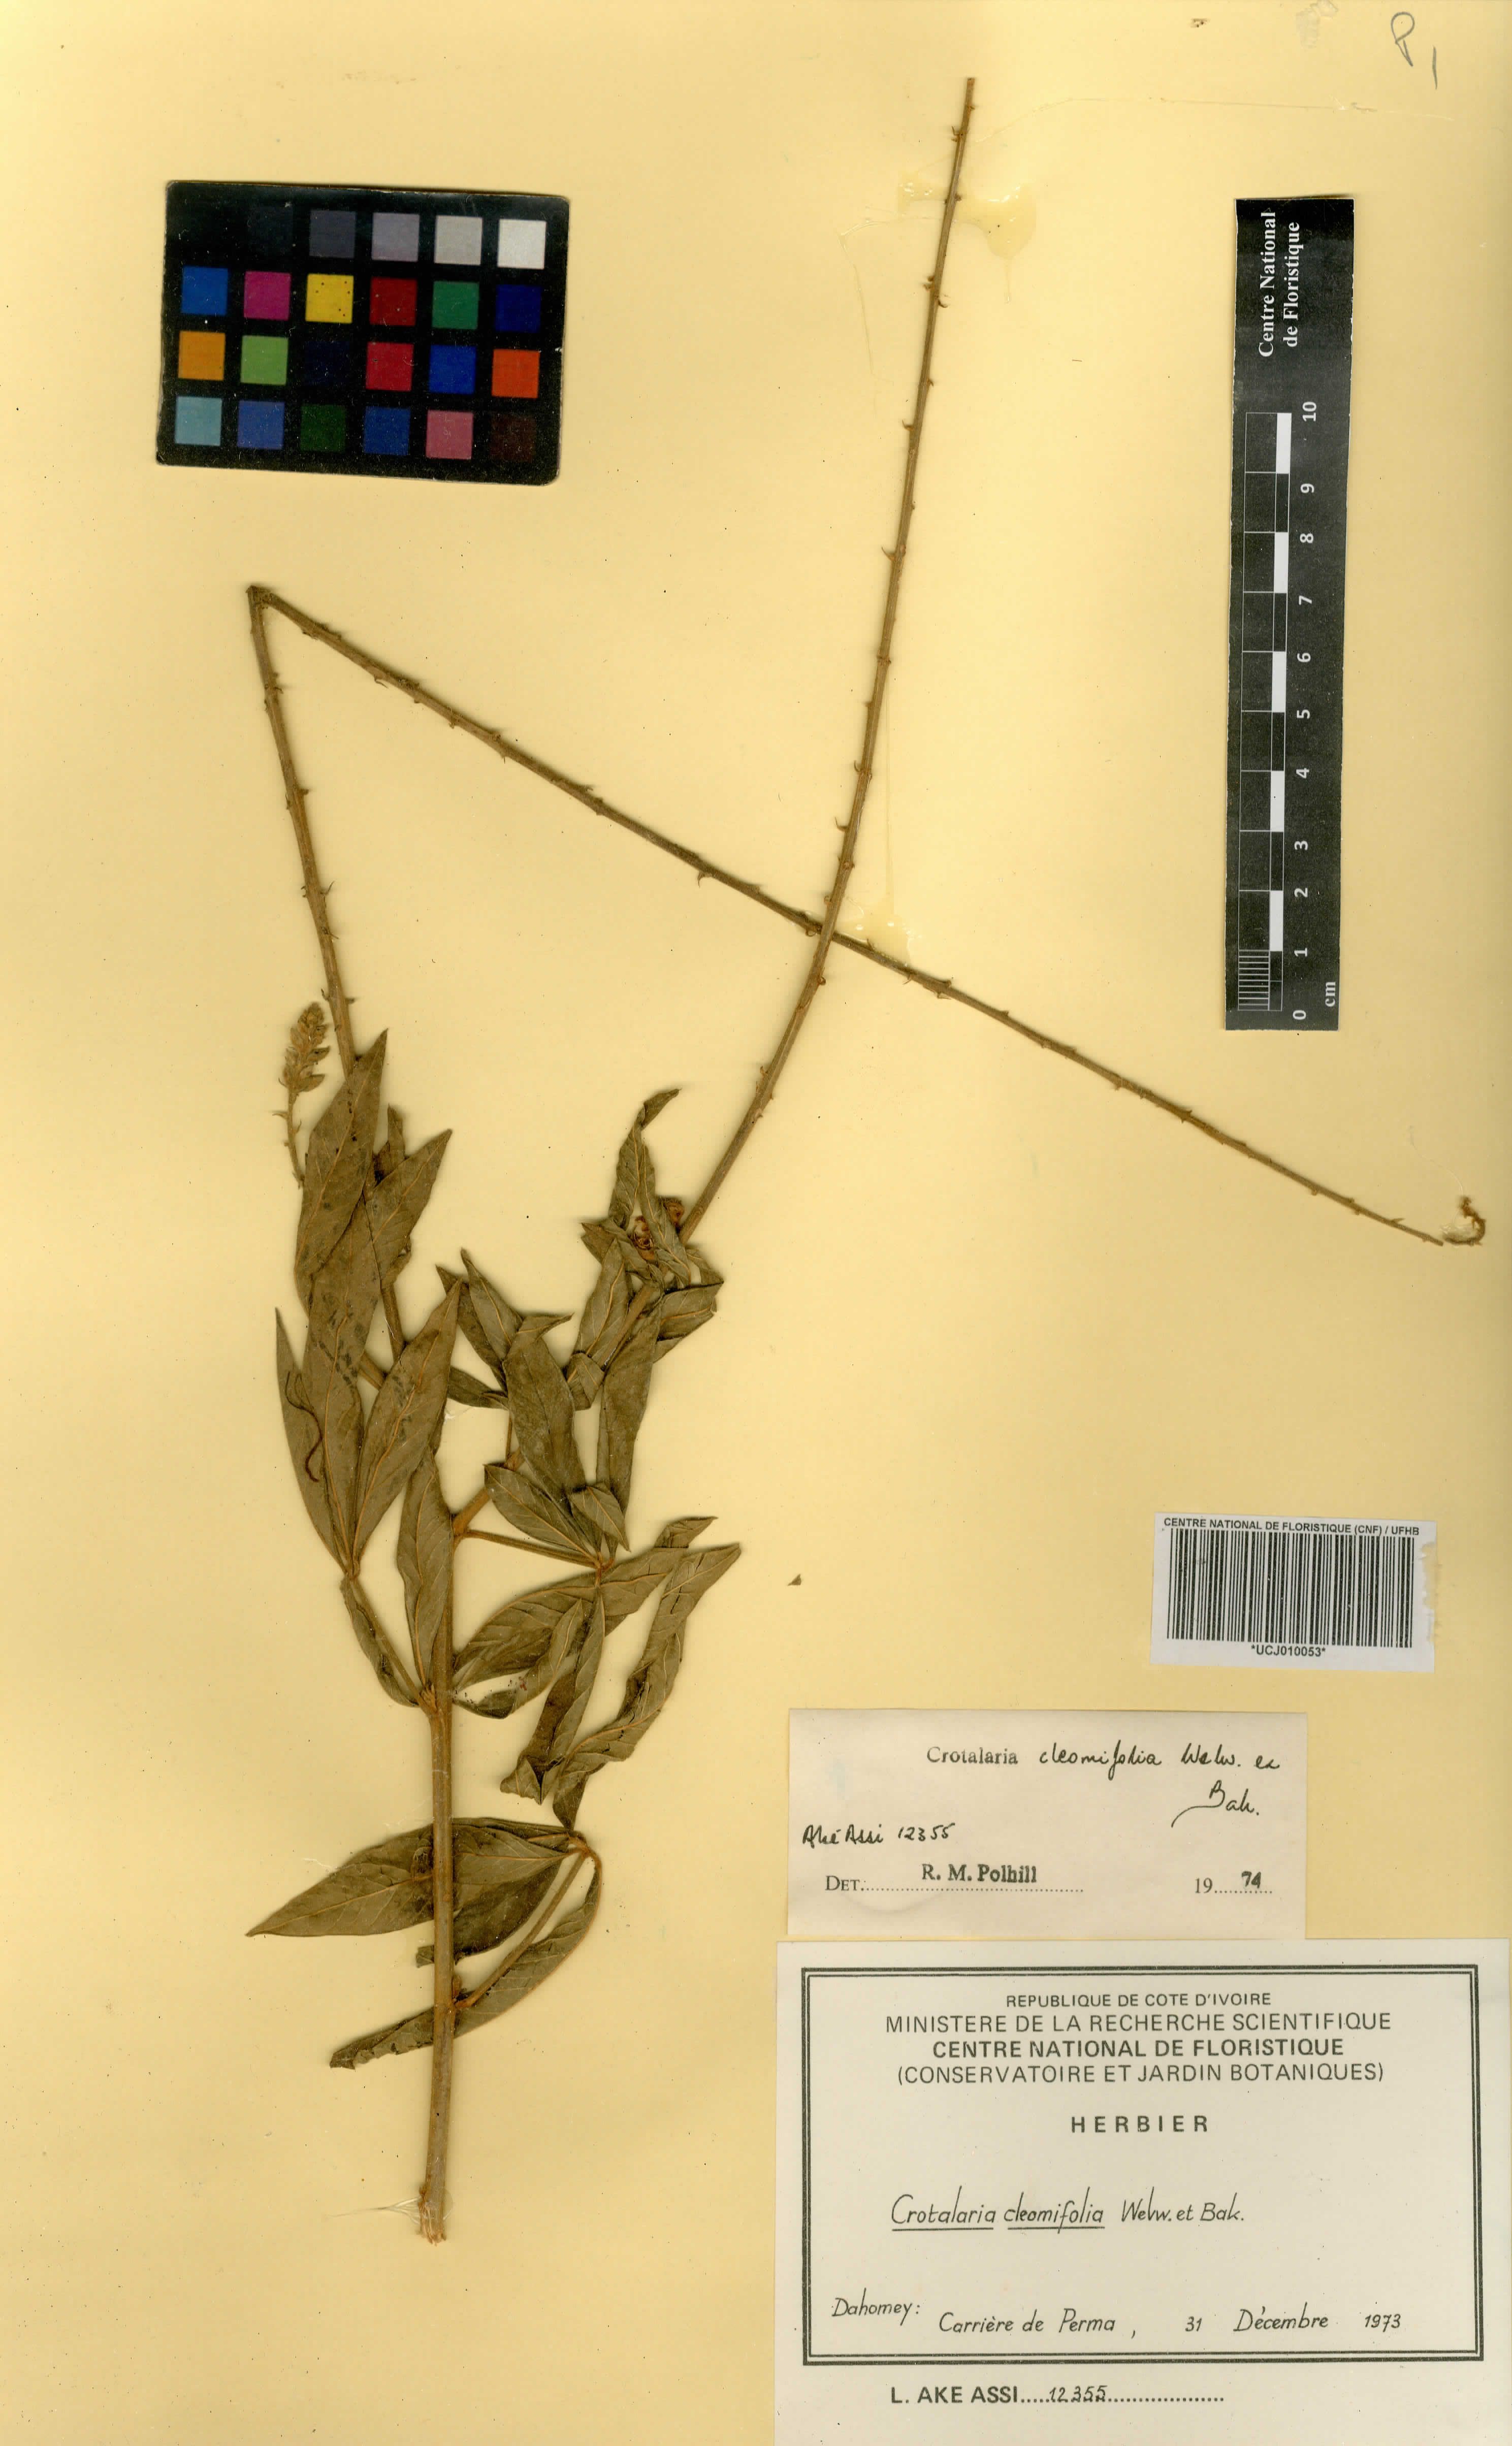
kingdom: Plantae
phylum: Tracheophyta
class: Magnoliopsida
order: Fabales
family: Fabaceae
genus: Crotalaria
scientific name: Crotalaria cleomifolia
